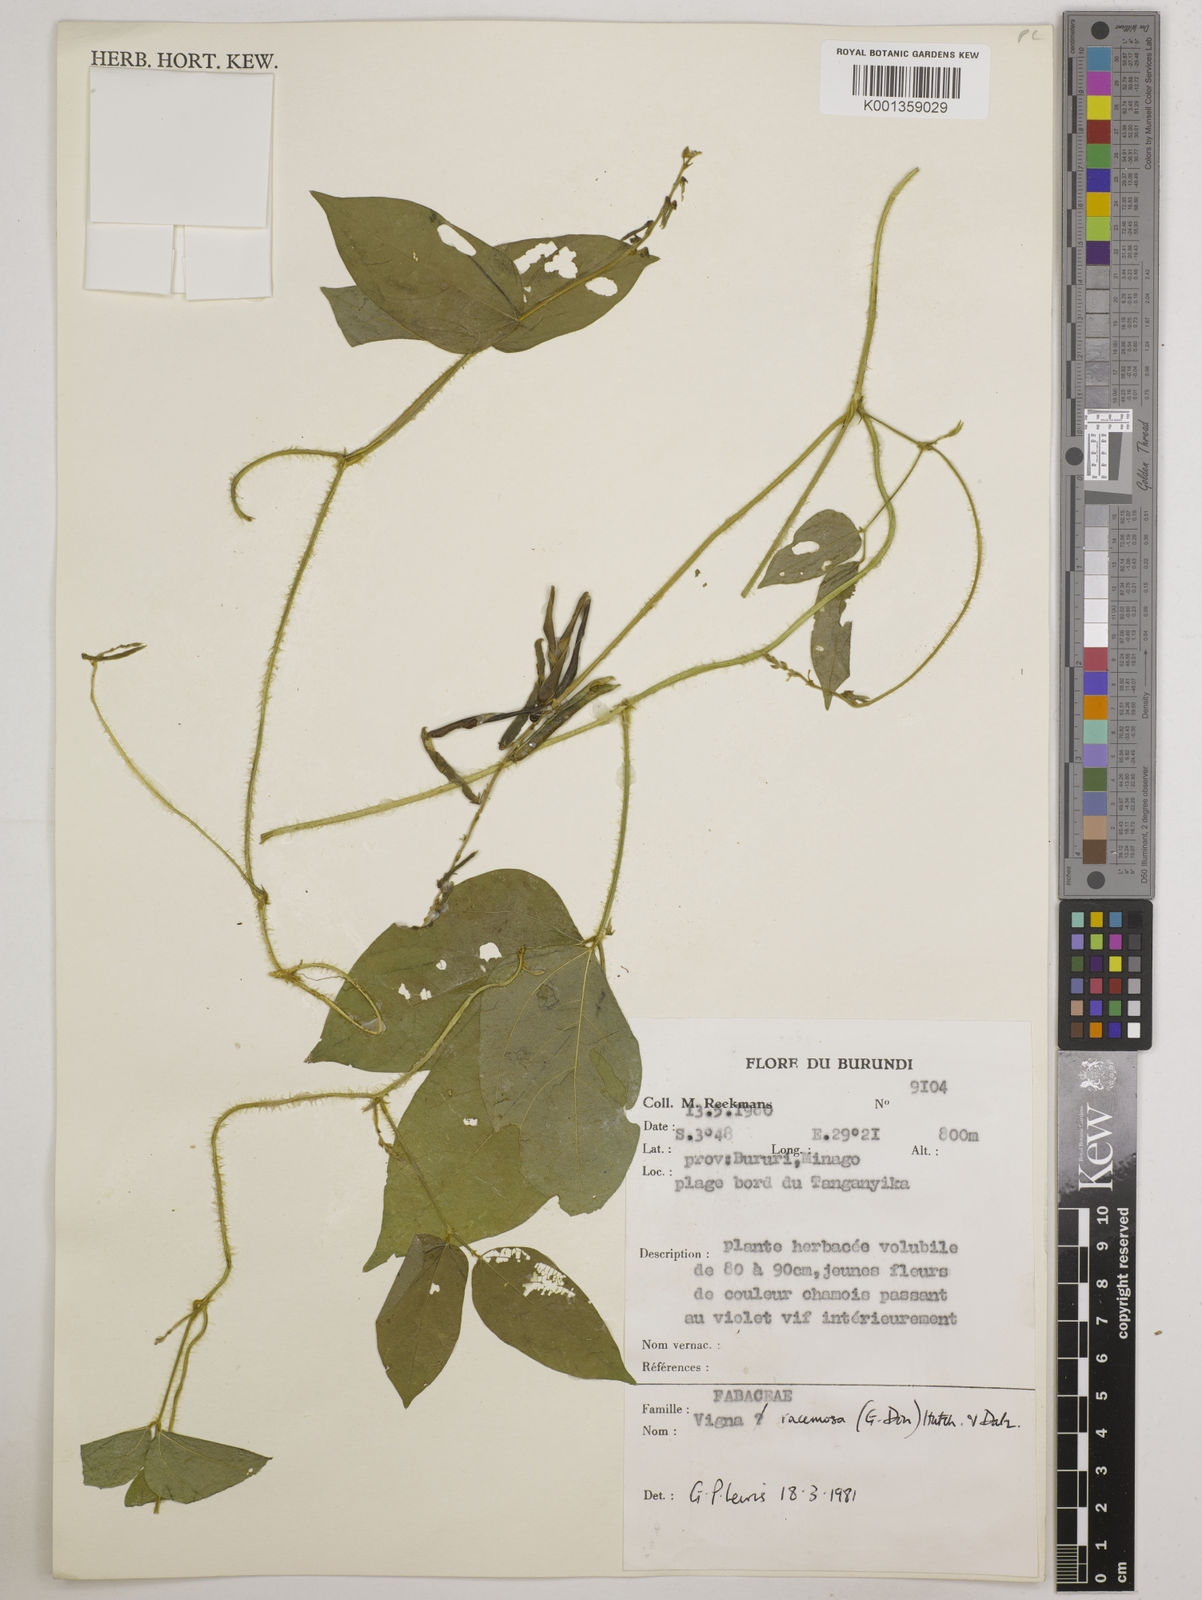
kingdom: Plantae
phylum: Tracheophyta
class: Magnoliopsida
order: Fabales
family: Fabaceae
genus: Vigna
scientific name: Vigna racemosa
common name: Beans not eaten
